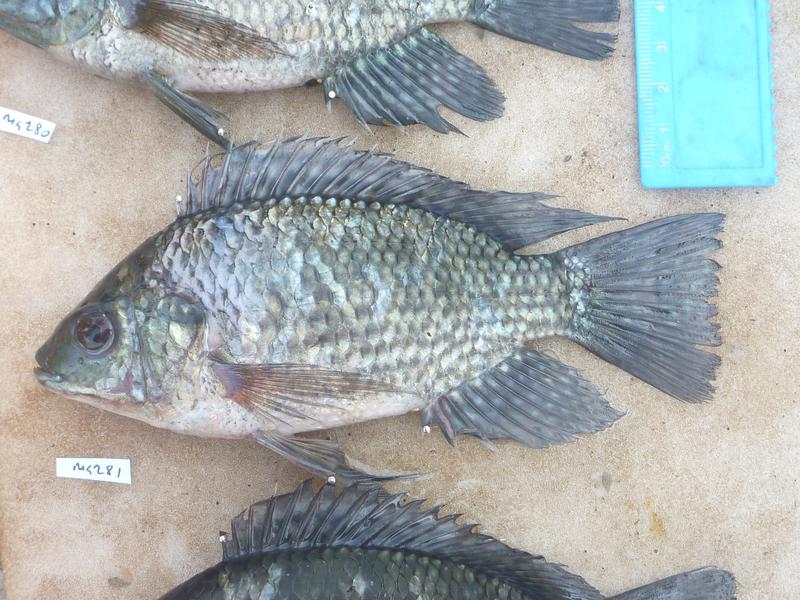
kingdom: Animalia
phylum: Chordata
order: Perciformes
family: Cichlidae
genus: Oreochromis
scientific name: Oreochromis leucostictus
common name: Blue spotted tilapia
